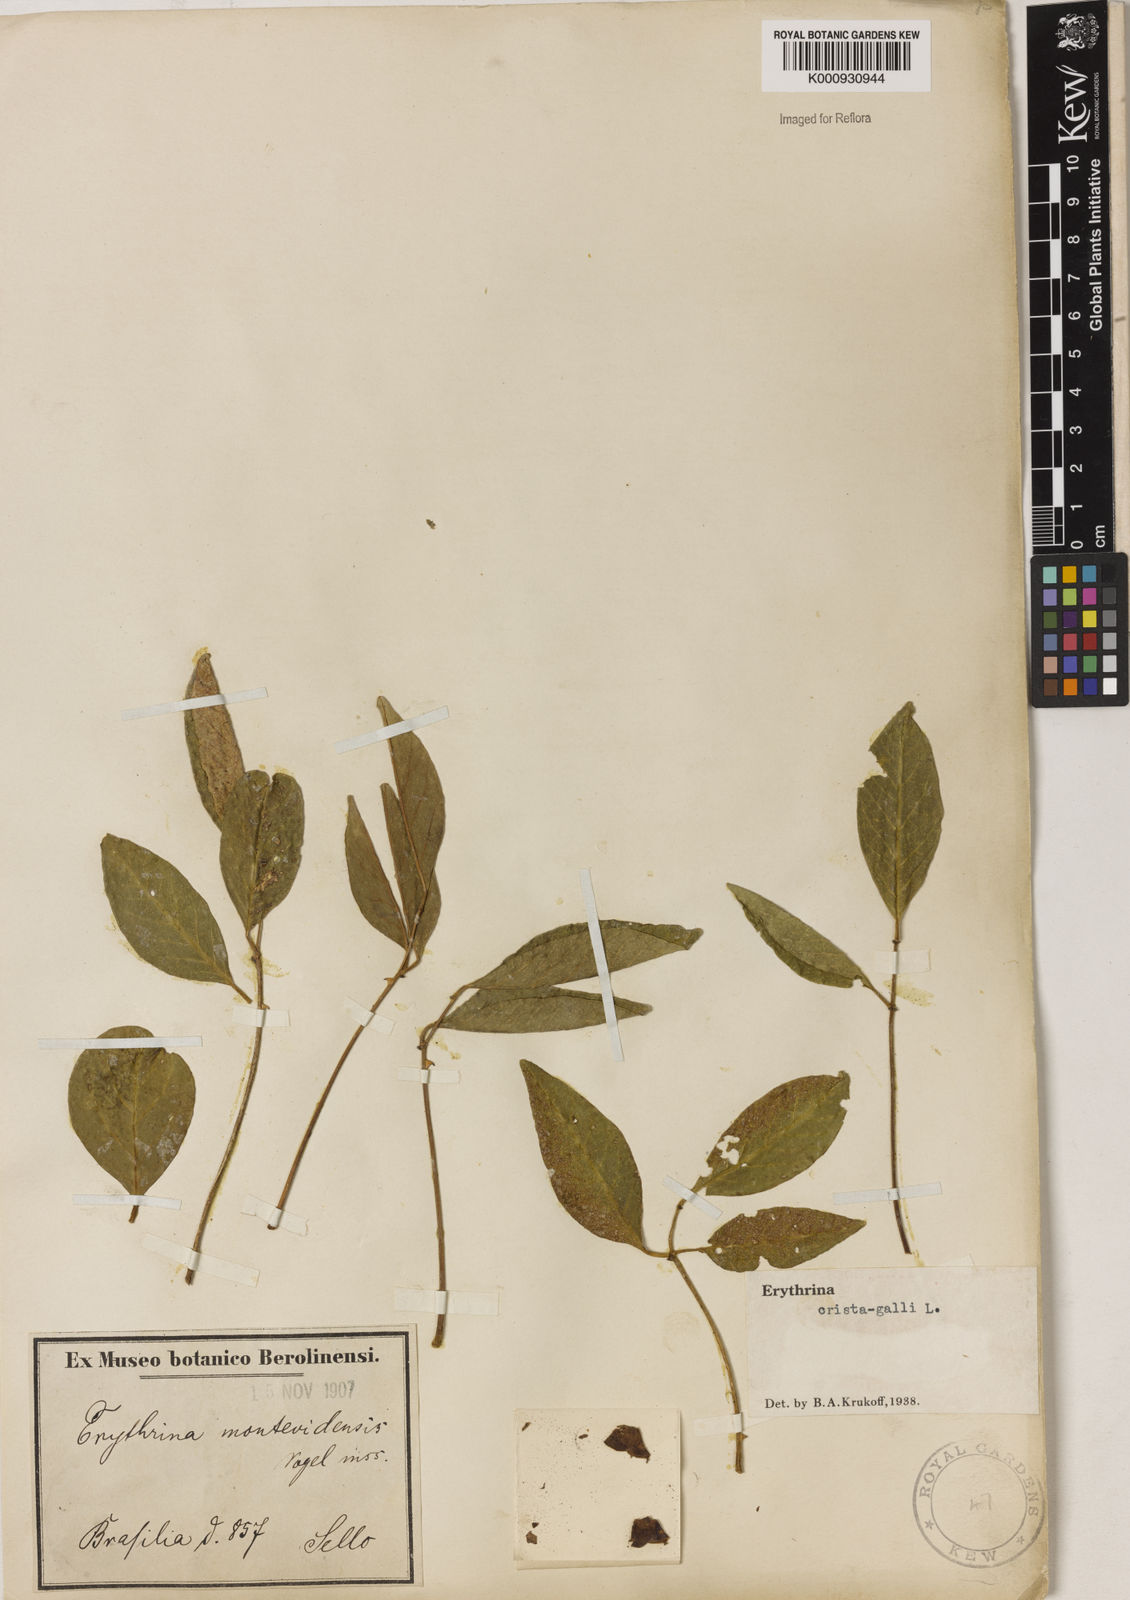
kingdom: Plantae
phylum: Tracheophyta
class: Magnoliopsida
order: Fabales
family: Fabaceae
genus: Erythrina
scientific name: Erythrina crista-galli
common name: Cockspur coral tree
